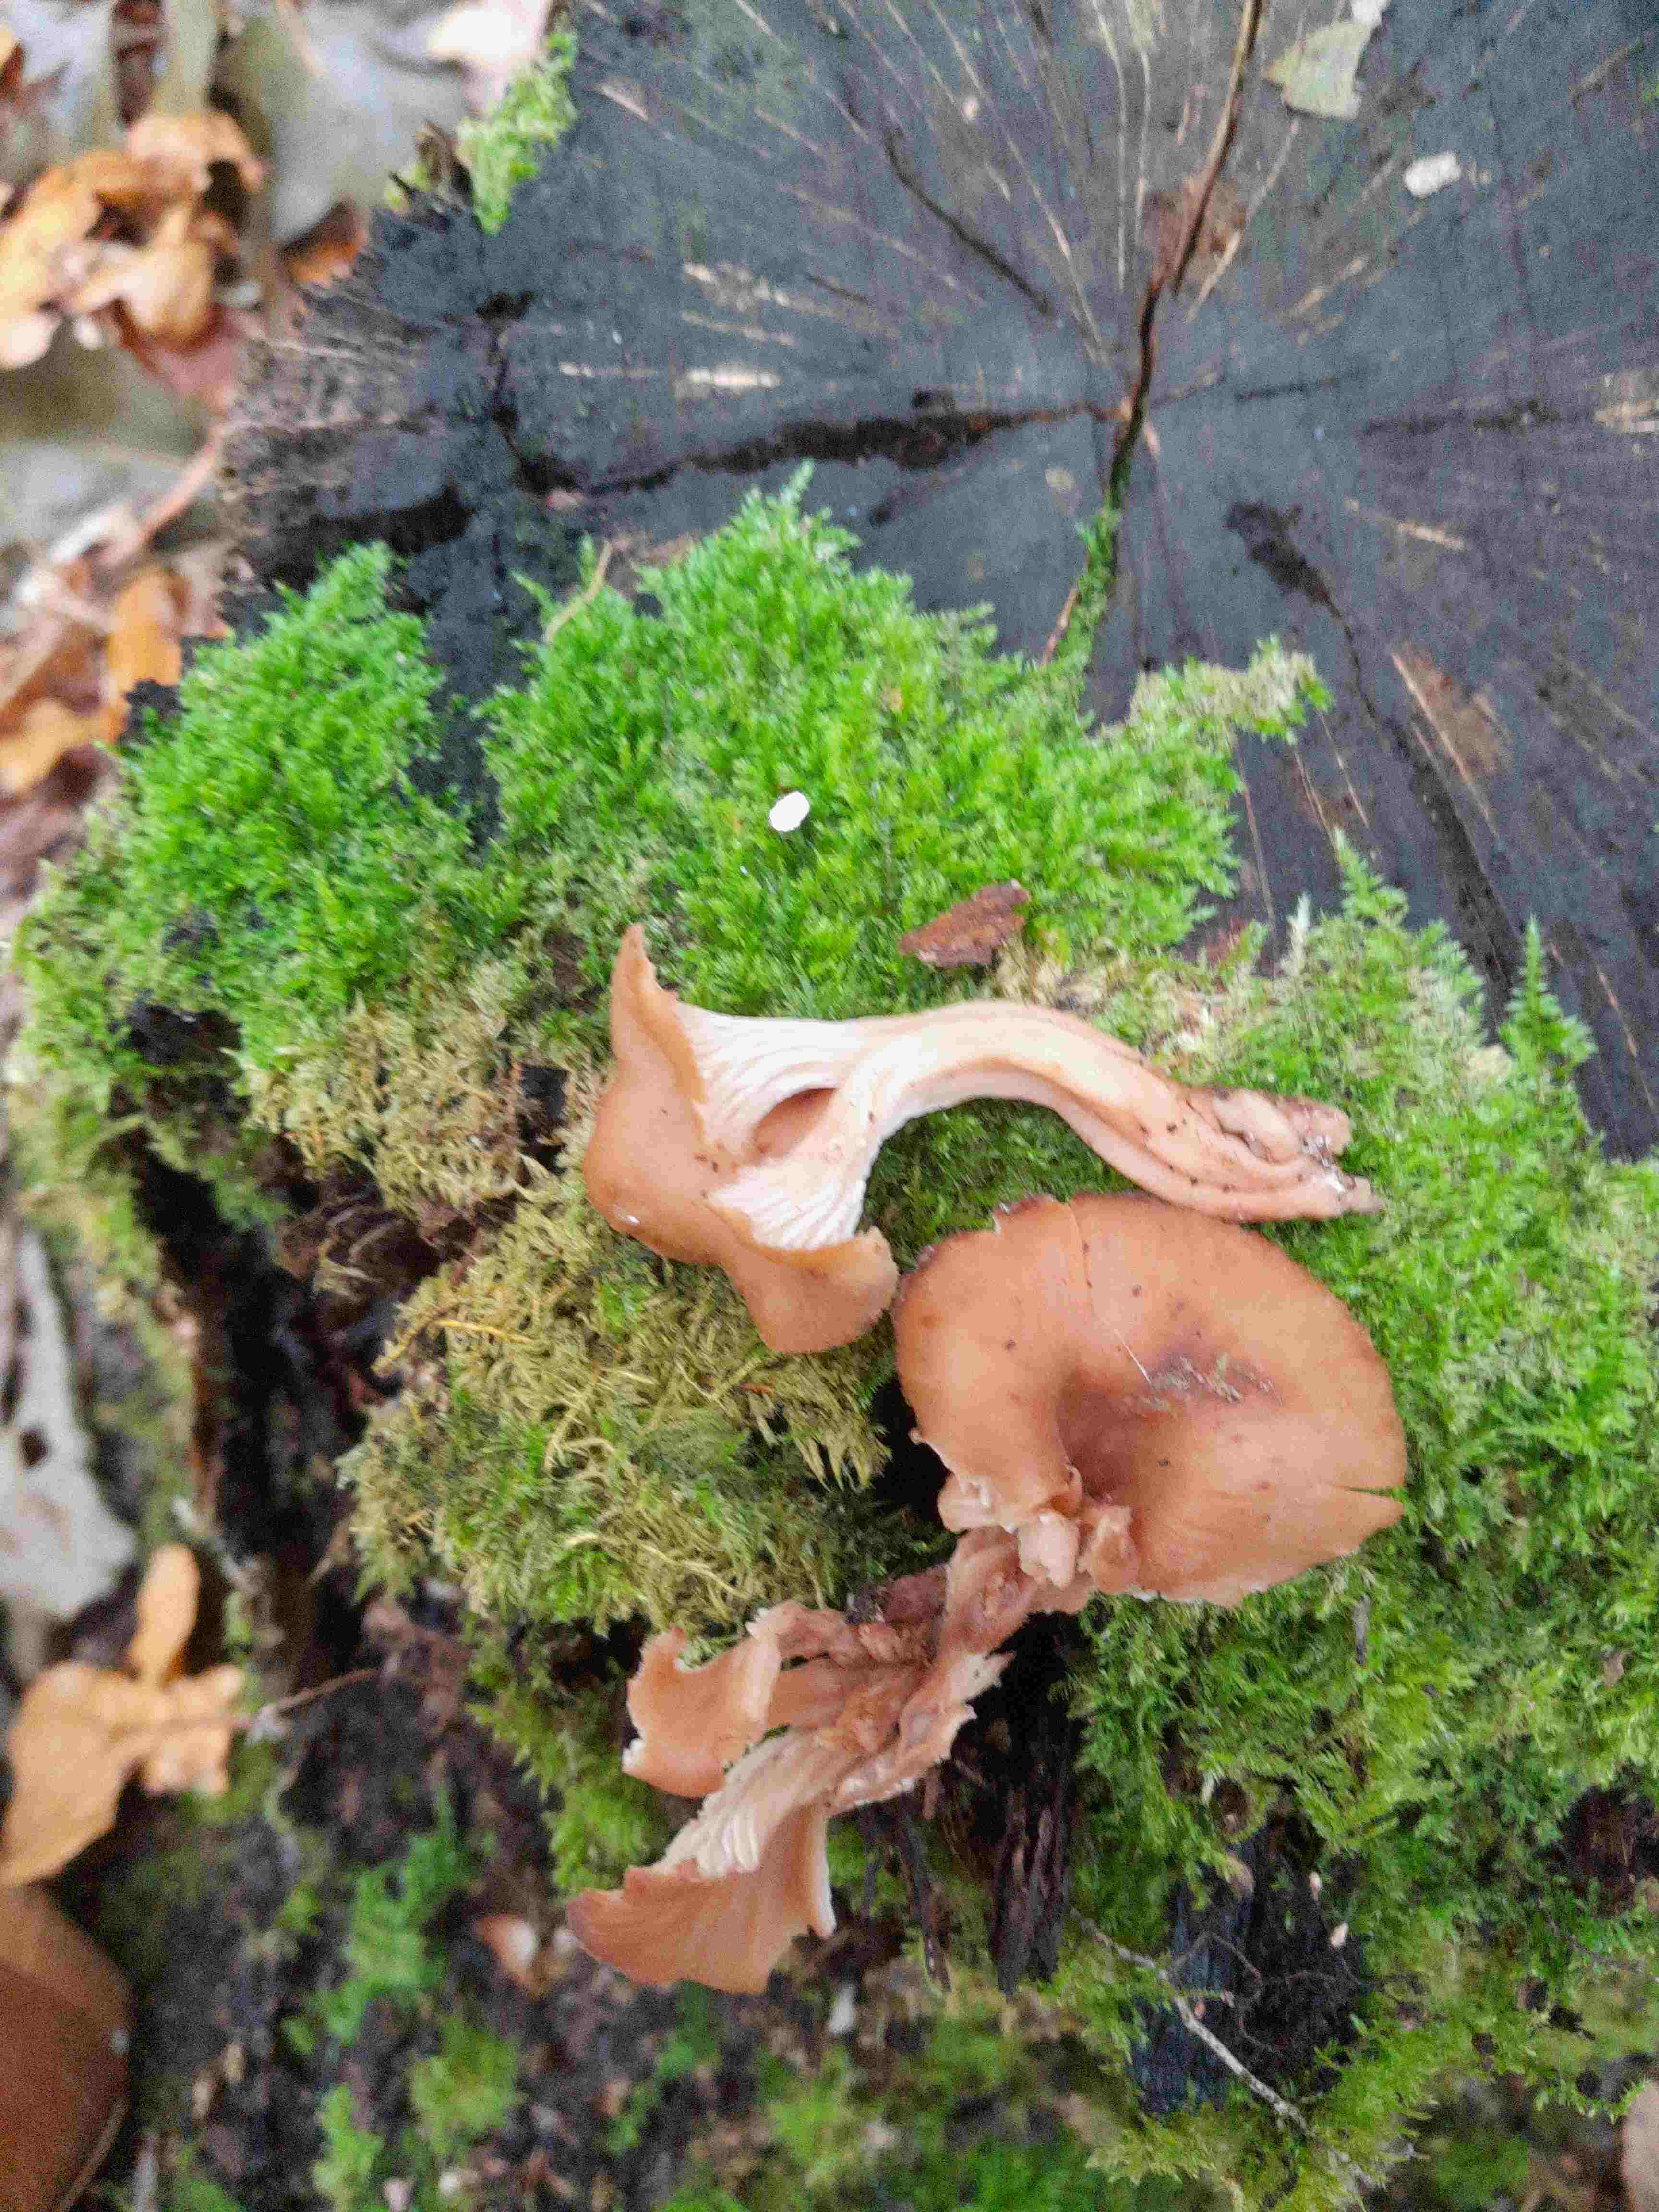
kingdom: Fungi
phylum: Basidiomycota
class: Agaricomycetes
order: Russulales
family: Auriscalpiaceae
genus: Lentinellus
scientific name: Lentinellus cochleatus
